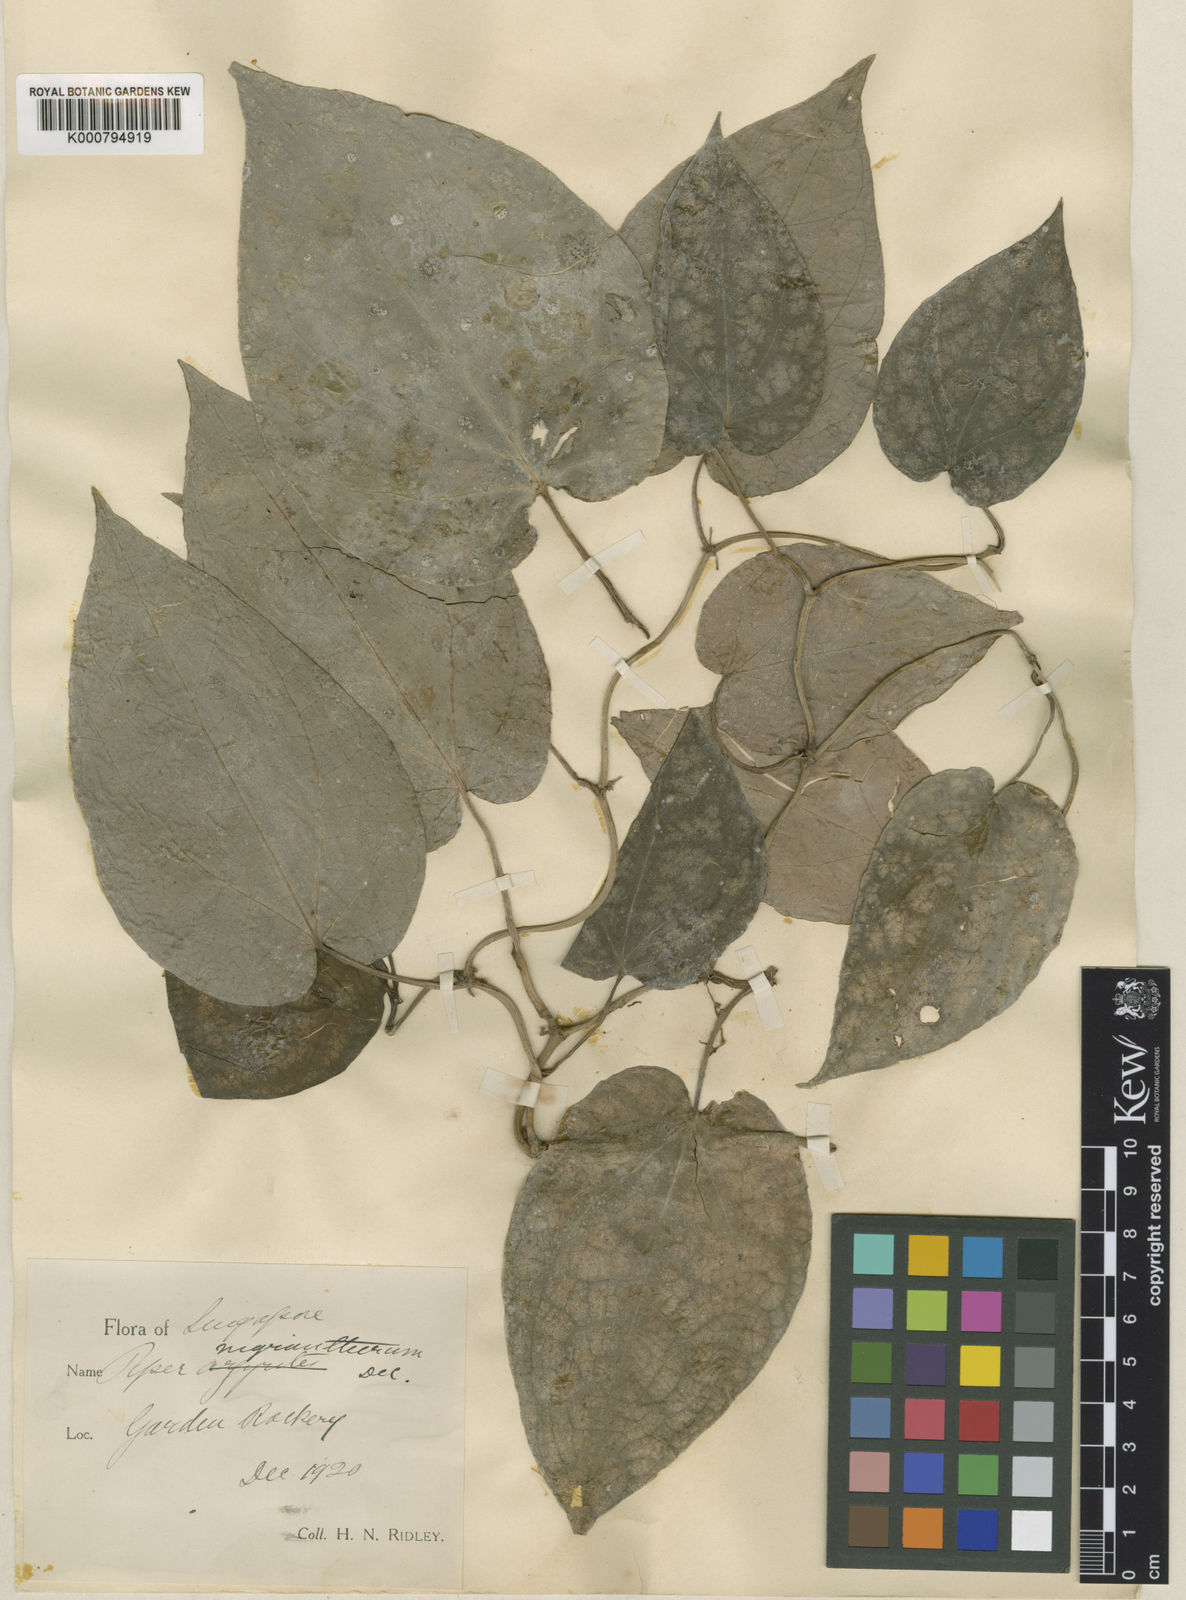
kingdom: Plantae
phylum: Tracheophyta
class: Magnoliopsida
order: Piperales
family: Piperaceae
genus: Piper
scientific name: Piper
